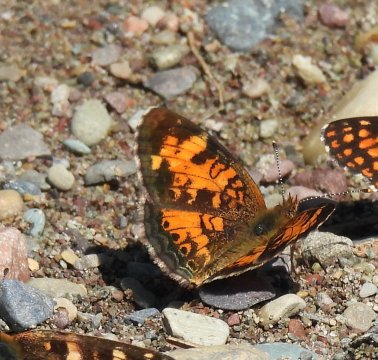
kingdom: Animalia
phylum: Arthropoda
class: Insecta
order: Lepidoptera
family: Nymphalidae
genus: Phyciodes
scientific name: Phyciodes tharos
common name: Northern Crescent
